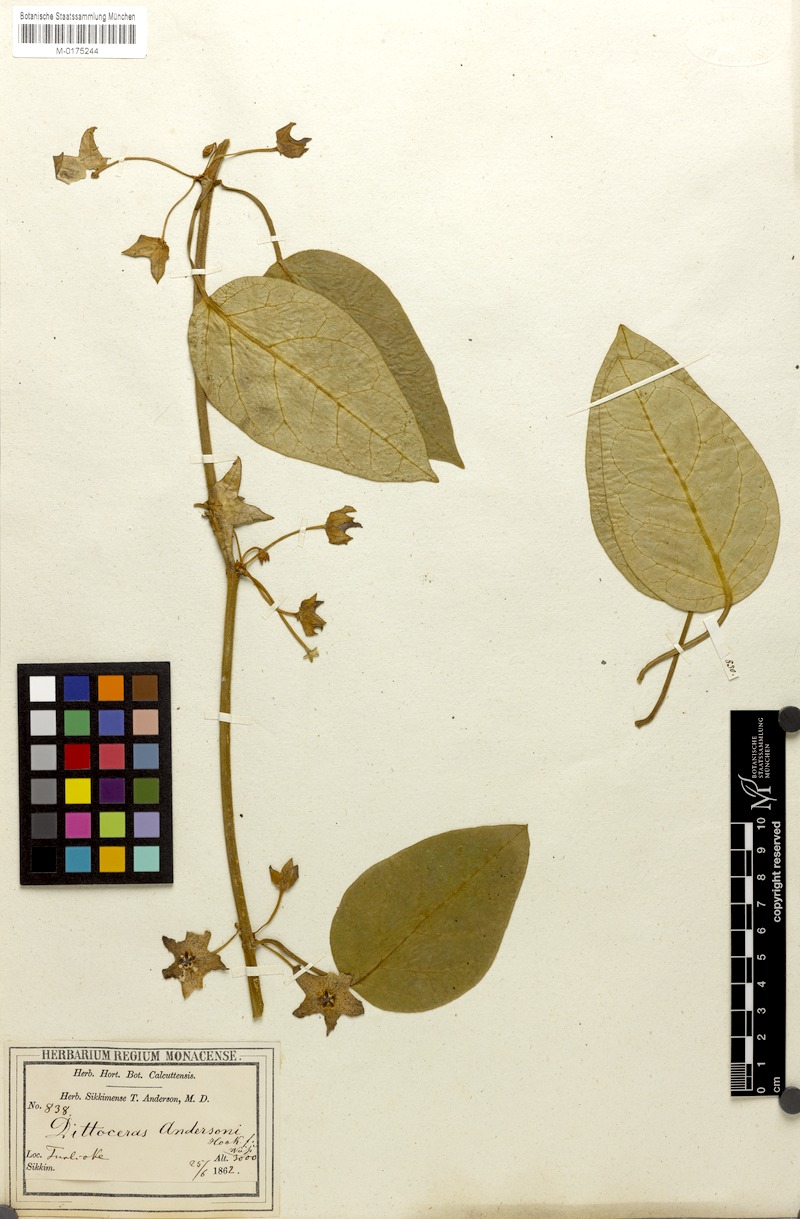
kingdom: Plantae
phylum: Tracheophyta
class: Magnoliopsida
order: Gentianales
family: Apocynaceae
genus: Heterostemma
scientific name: Heterostemma andersonii
